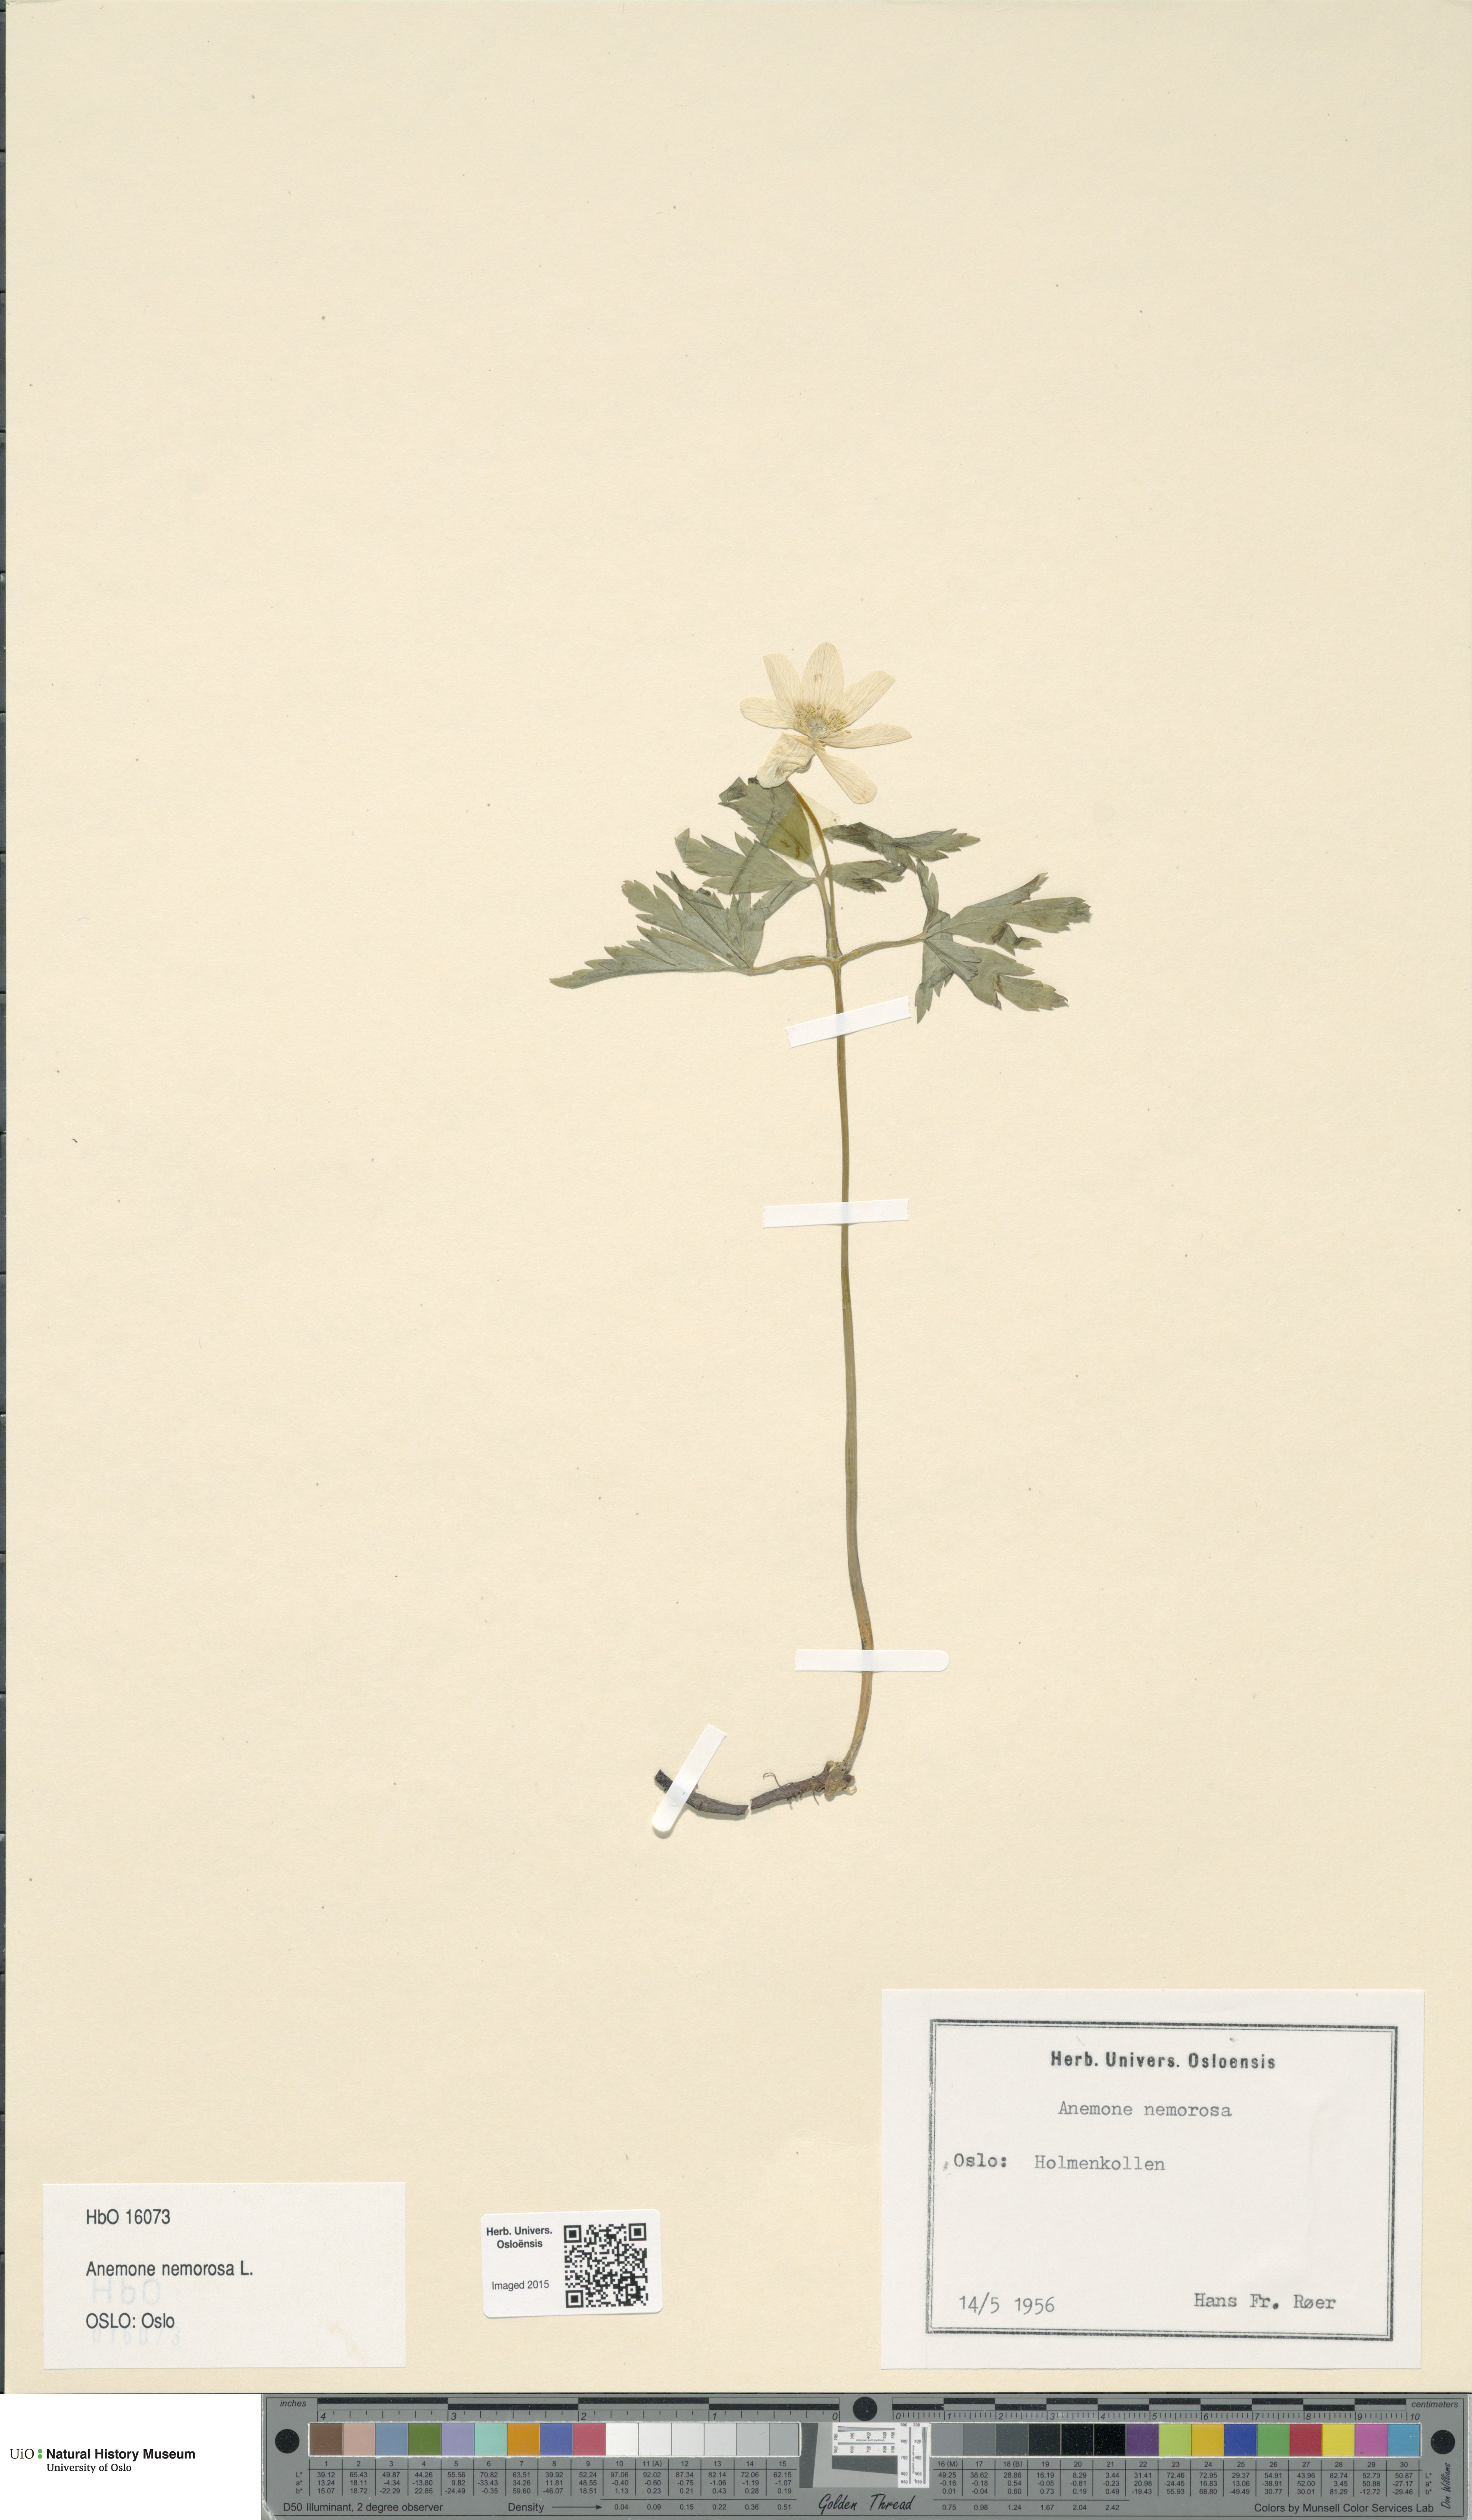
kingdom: Plantae
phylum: Tracheophyta
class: Magnoliopsida
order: Ranunculales
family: Ranunculaceae
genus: Anemone
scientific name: Anemone nemorosa
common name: Wood anemone
